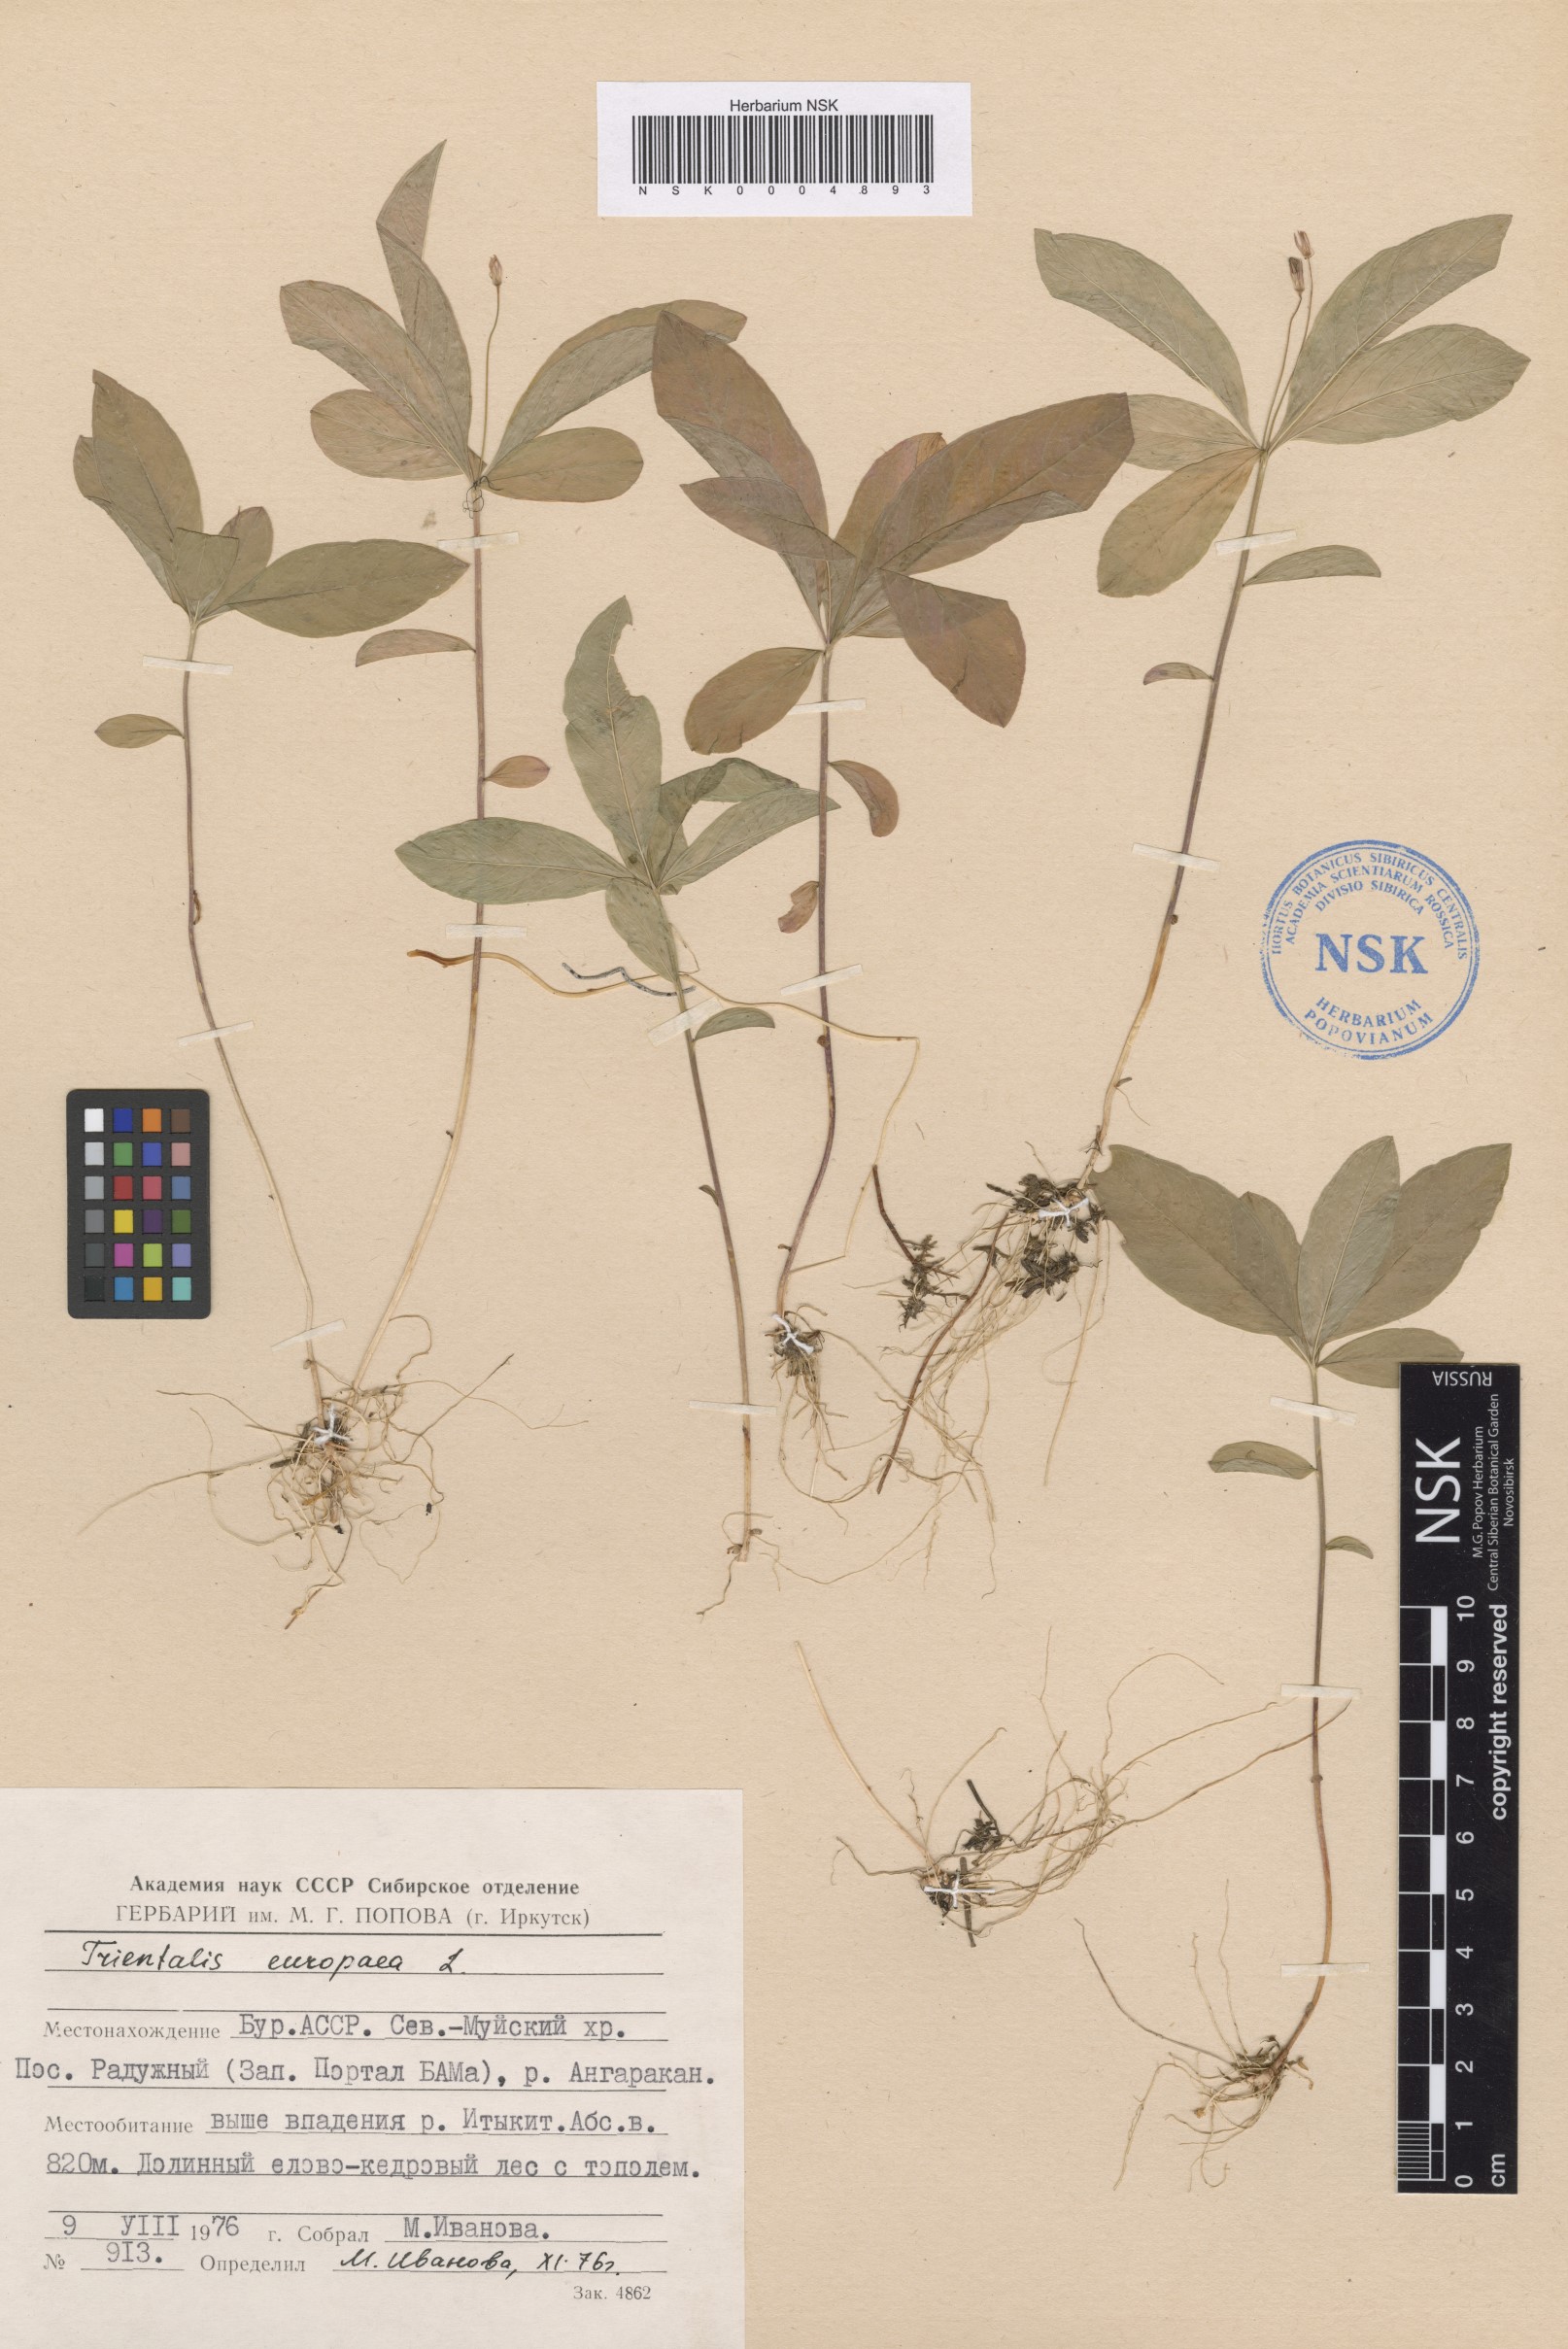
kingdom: Plantae
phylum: Tracheophyta
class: Magnoliopsida
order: Ericales
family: Primulaceae
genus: Lysimachia
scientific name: Lysimachia europaea
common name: Arctic starflower
